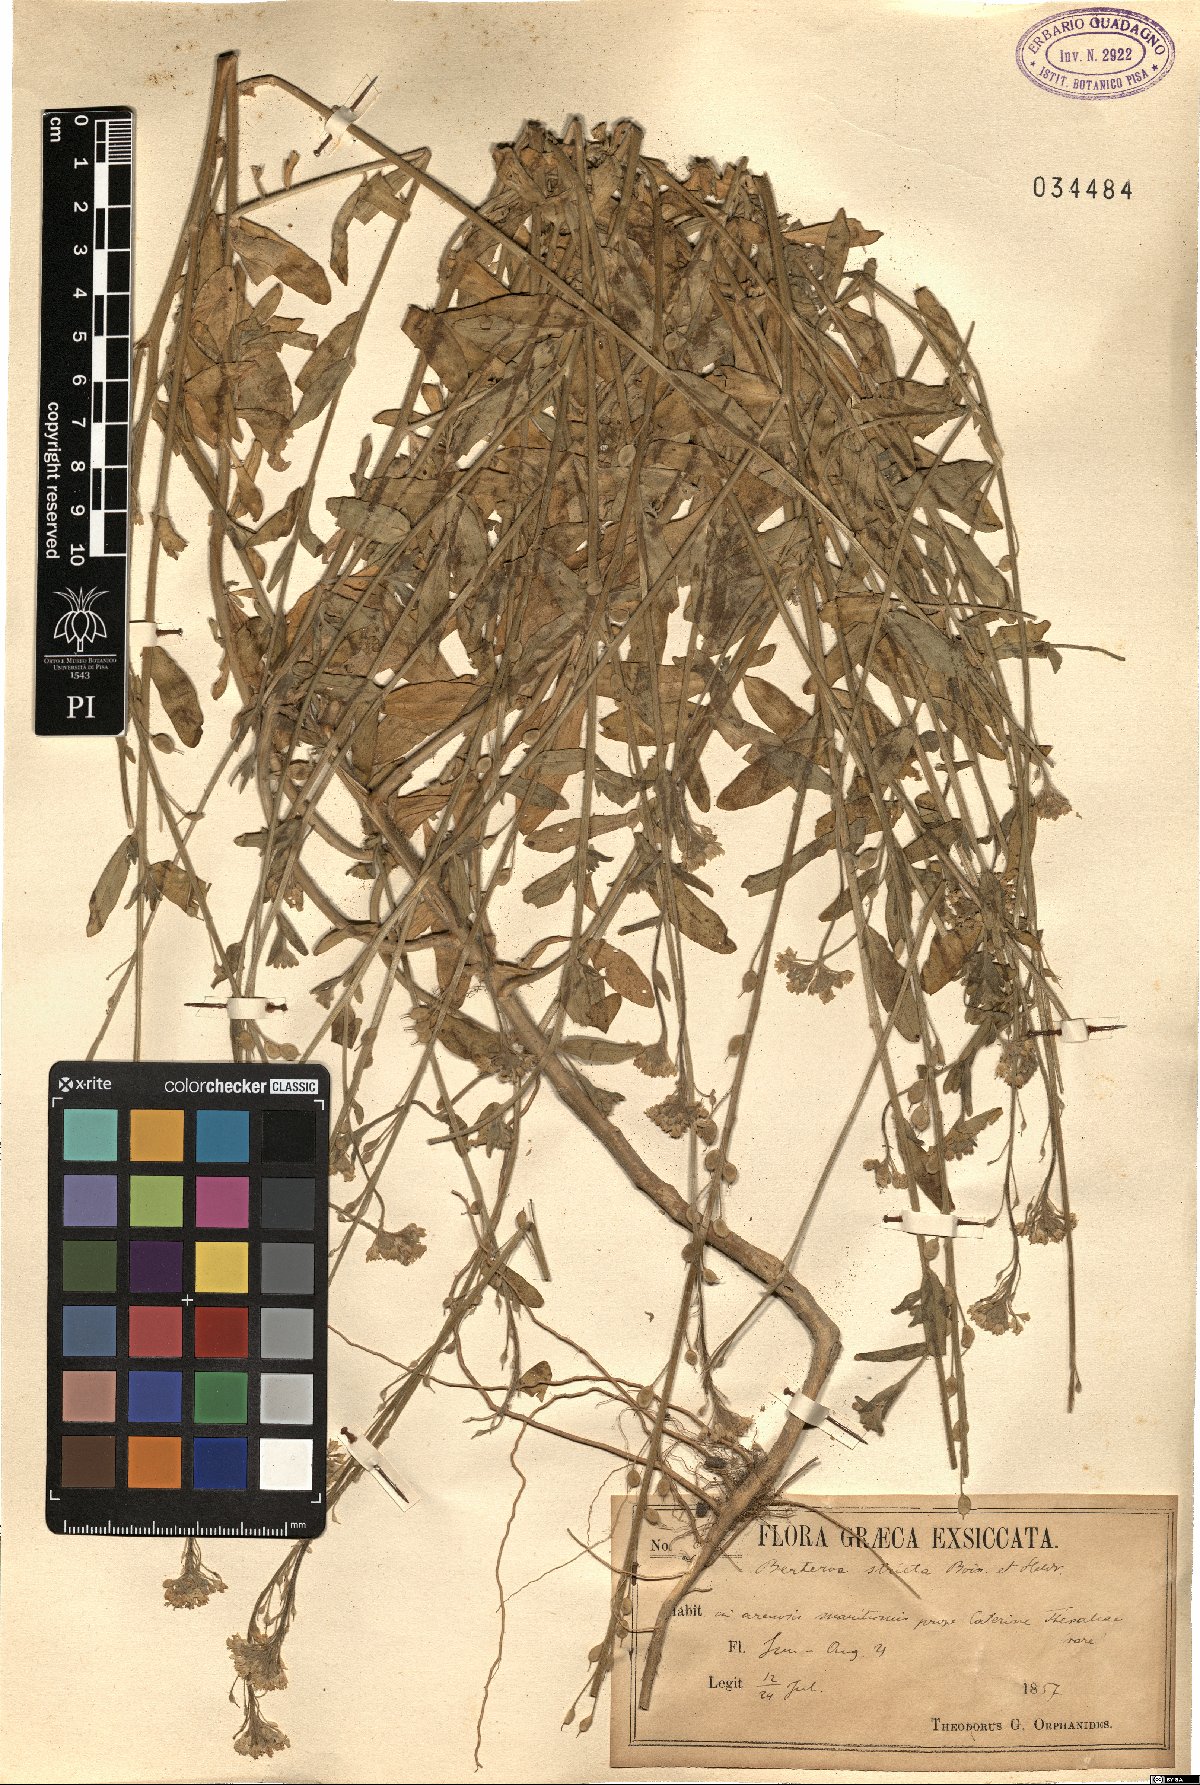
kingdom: Plantae
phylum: Tracheophyta
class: Magnoliopsida
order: Brassicales
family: Brassicaceae
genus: Berteroa
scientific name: Berteroa incana
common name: Hoary alison
